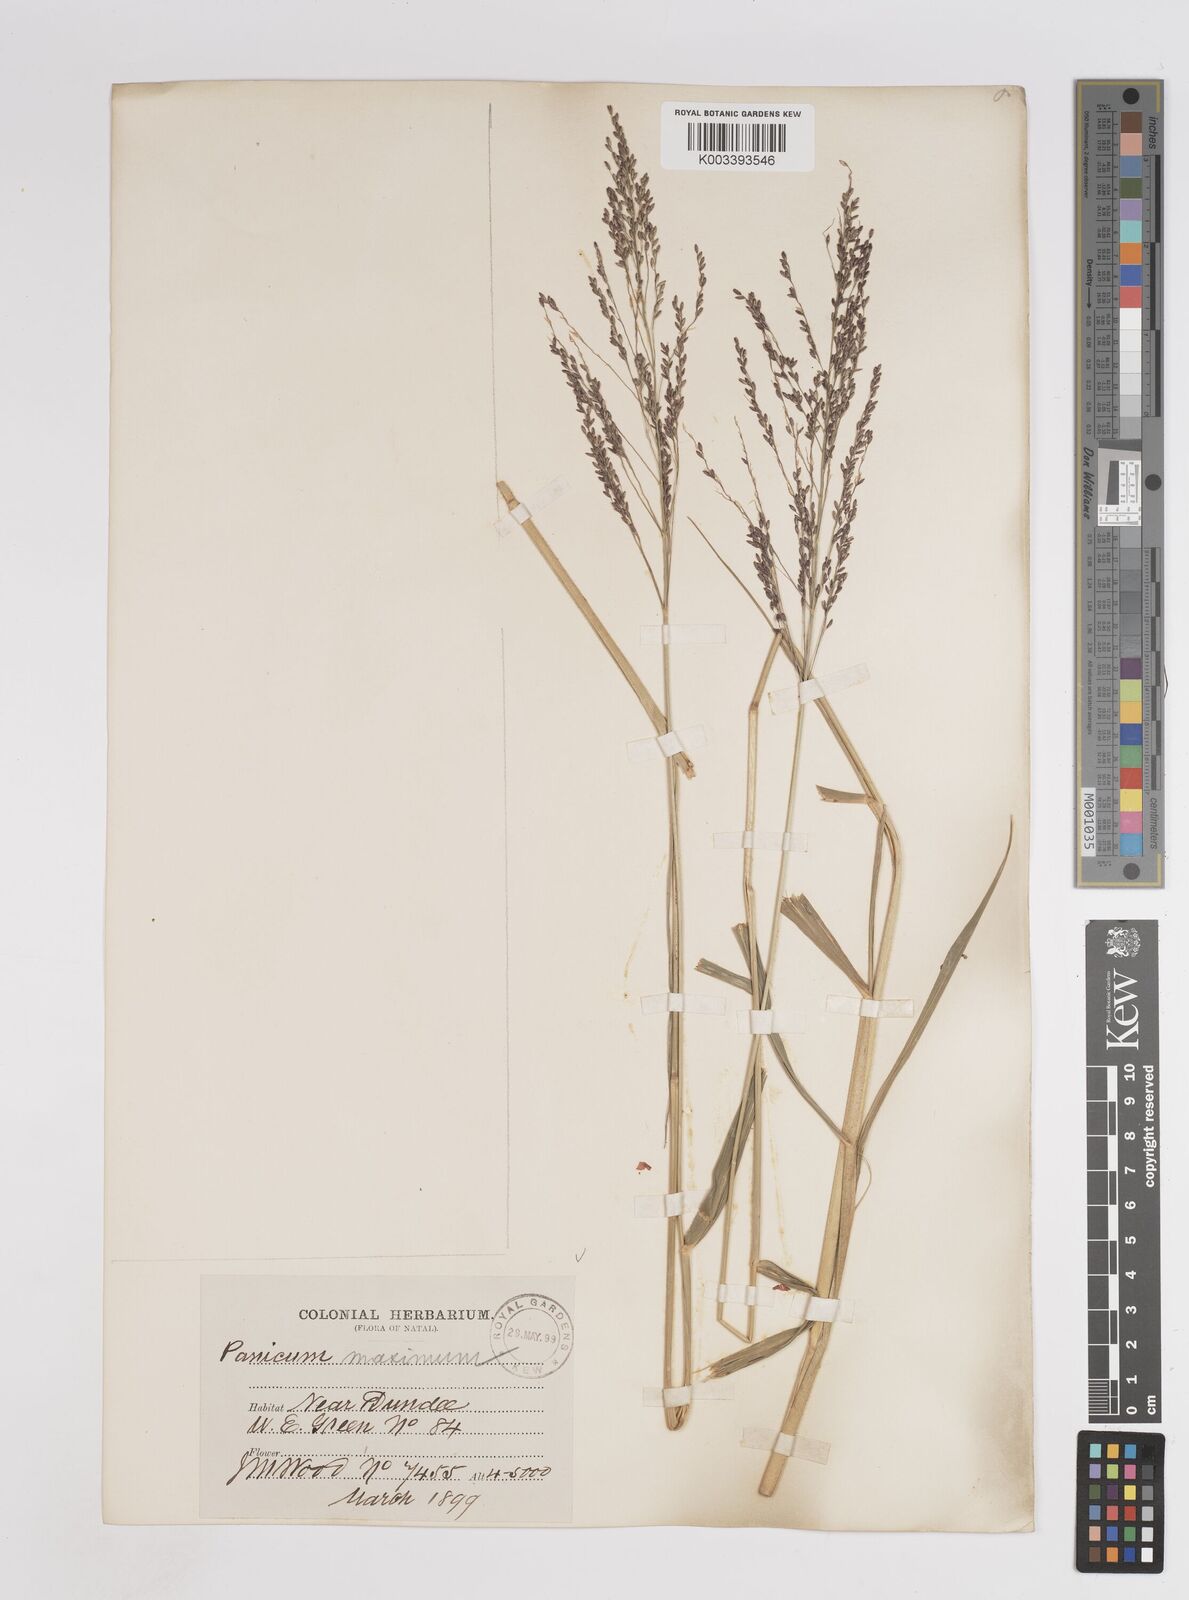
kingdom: Plantae
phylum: Tracheophyta
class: Liliopsida
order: Poales
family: Poaceae
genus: Megathyrsus
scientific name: Megathyrsus maximus
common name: Guineagrass
